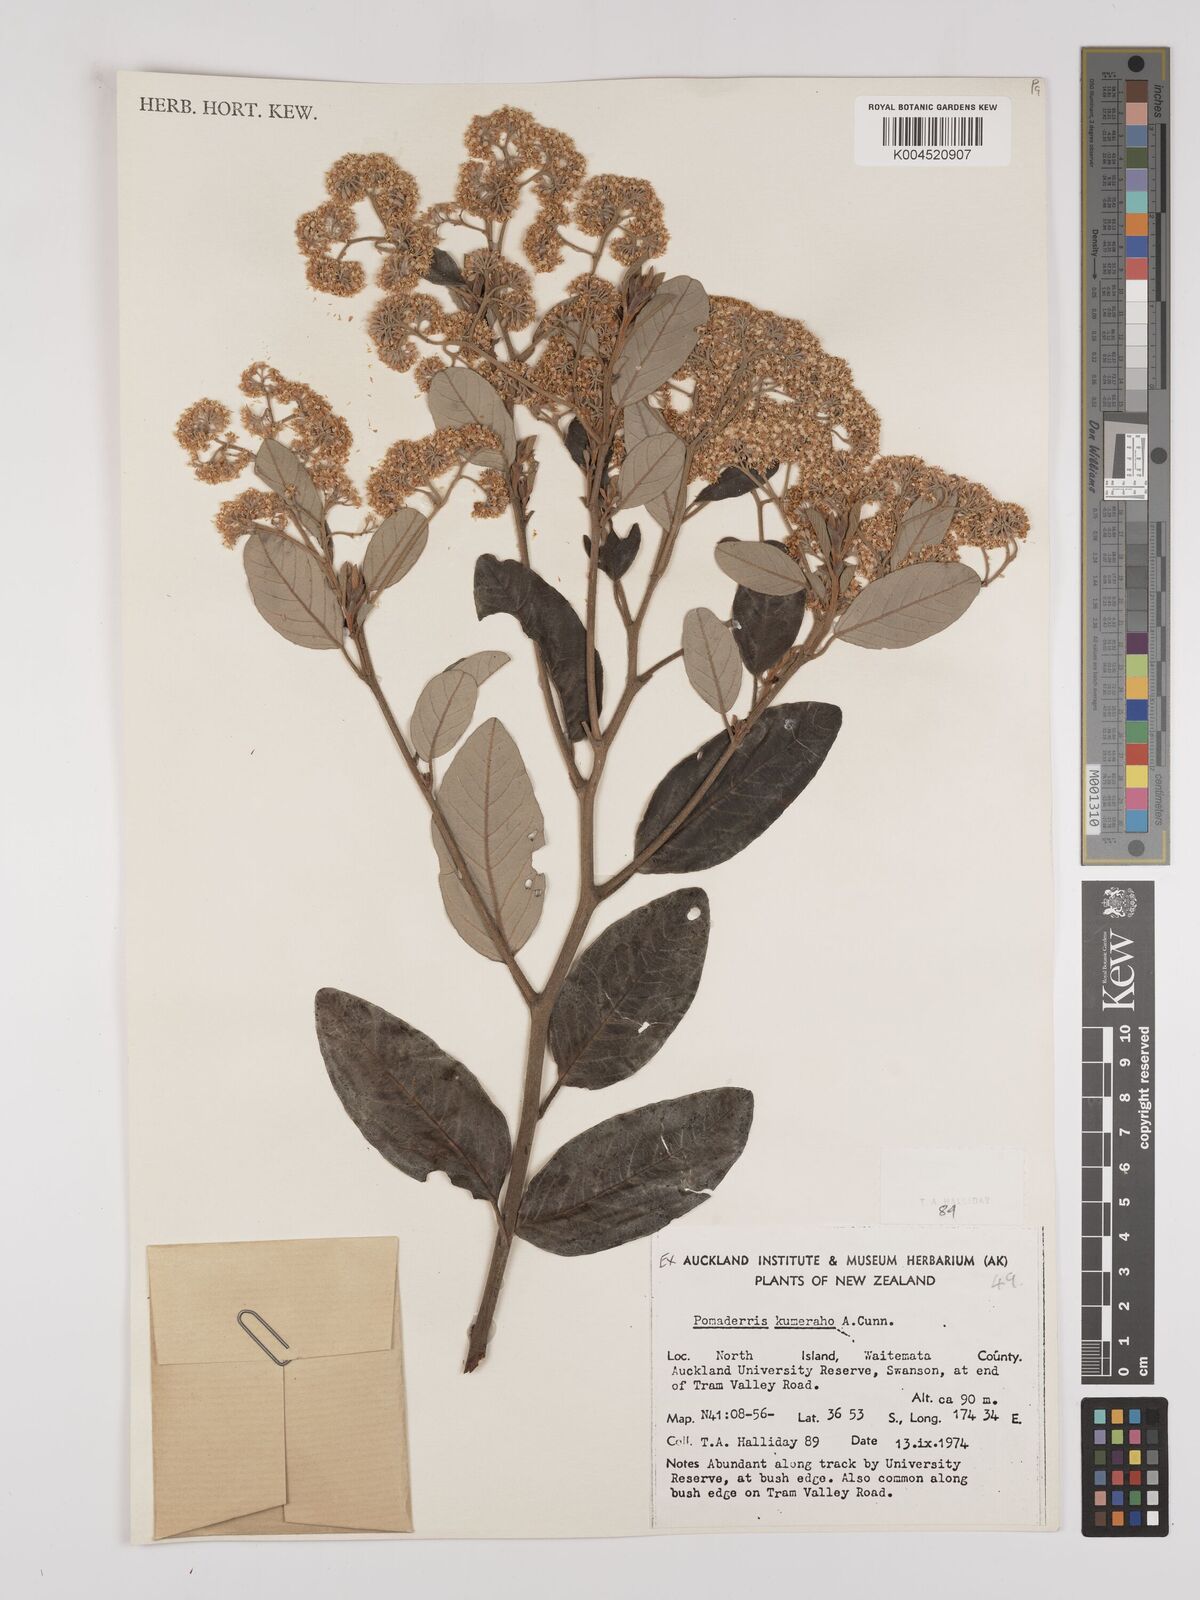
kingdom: Plantae
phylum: Tracheophyta
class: Magnoliopsida
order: Rosales
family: Rhamnaceae
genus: Pomaderris
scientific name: Pomaderris kumeraho
